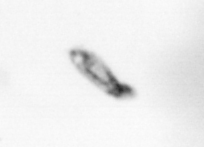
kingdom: Animalia
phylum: Arthropoda
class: Copepoda
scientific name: Copepoda
